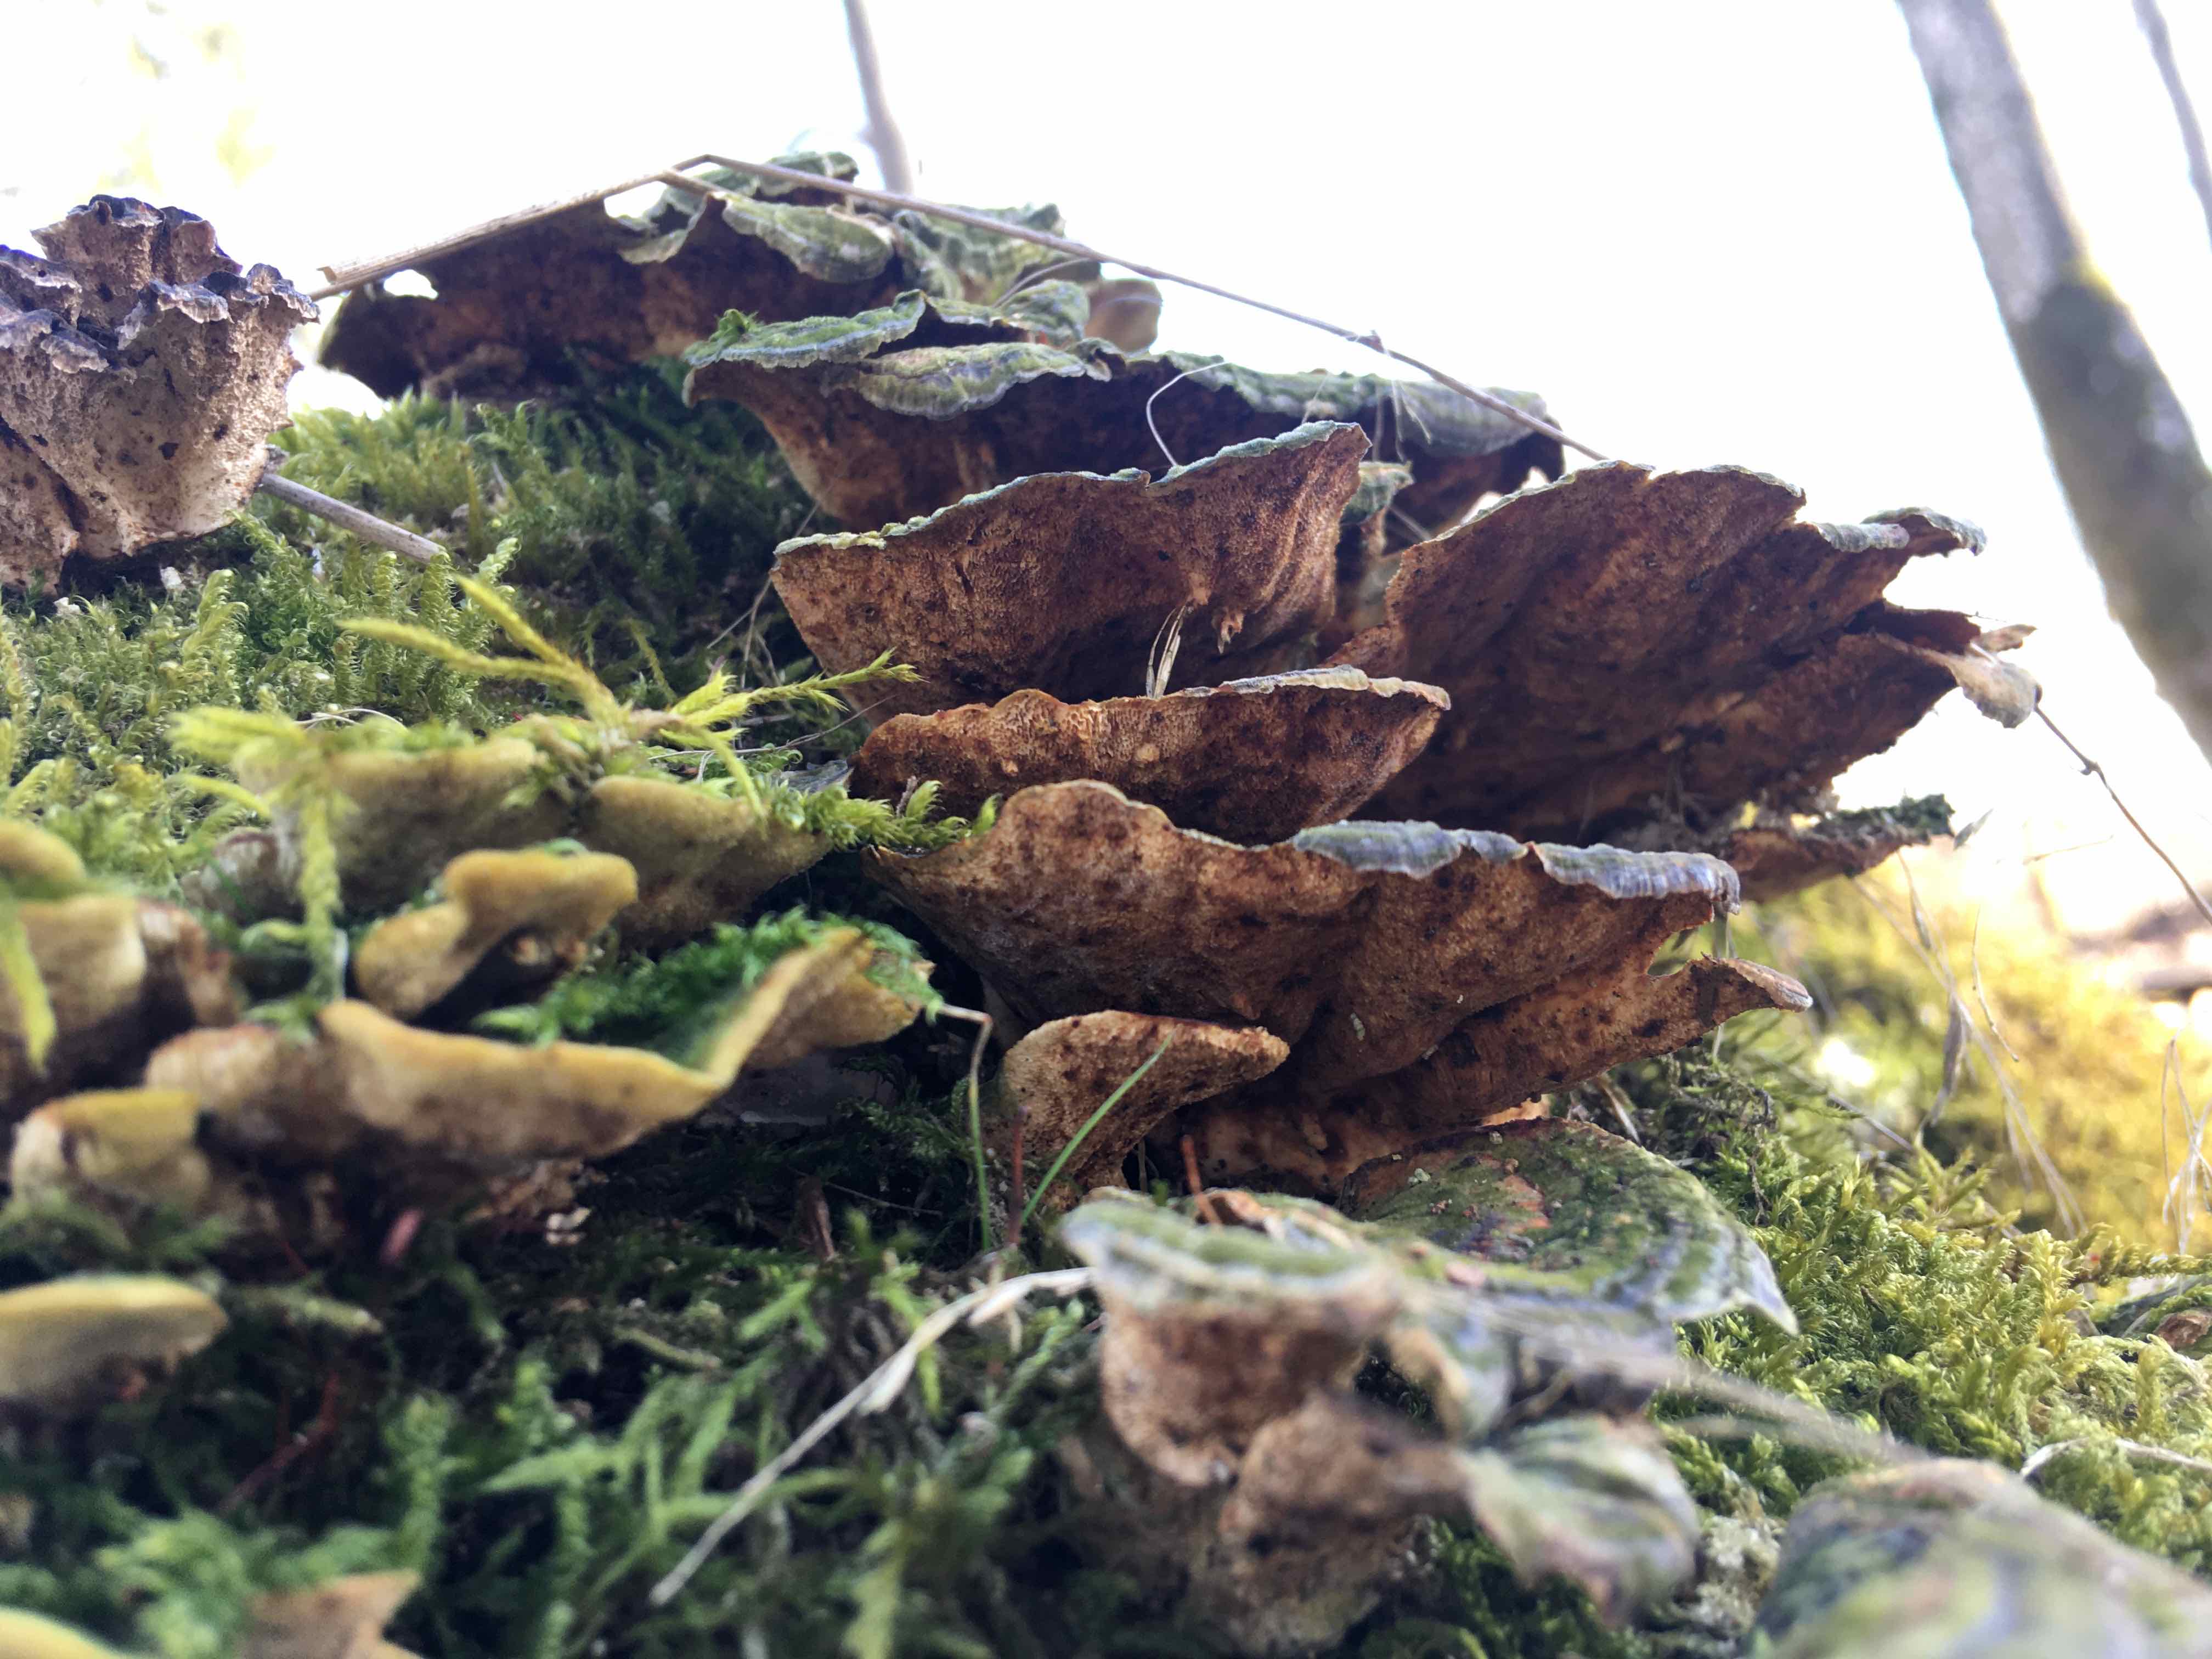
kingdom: Fungi
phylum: Basidiomycota
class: Agaricomycetes
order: Polyporales
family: Polyporaceae
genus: Trametes
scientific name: Trametes versicolor
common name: broget læderporesvamp
